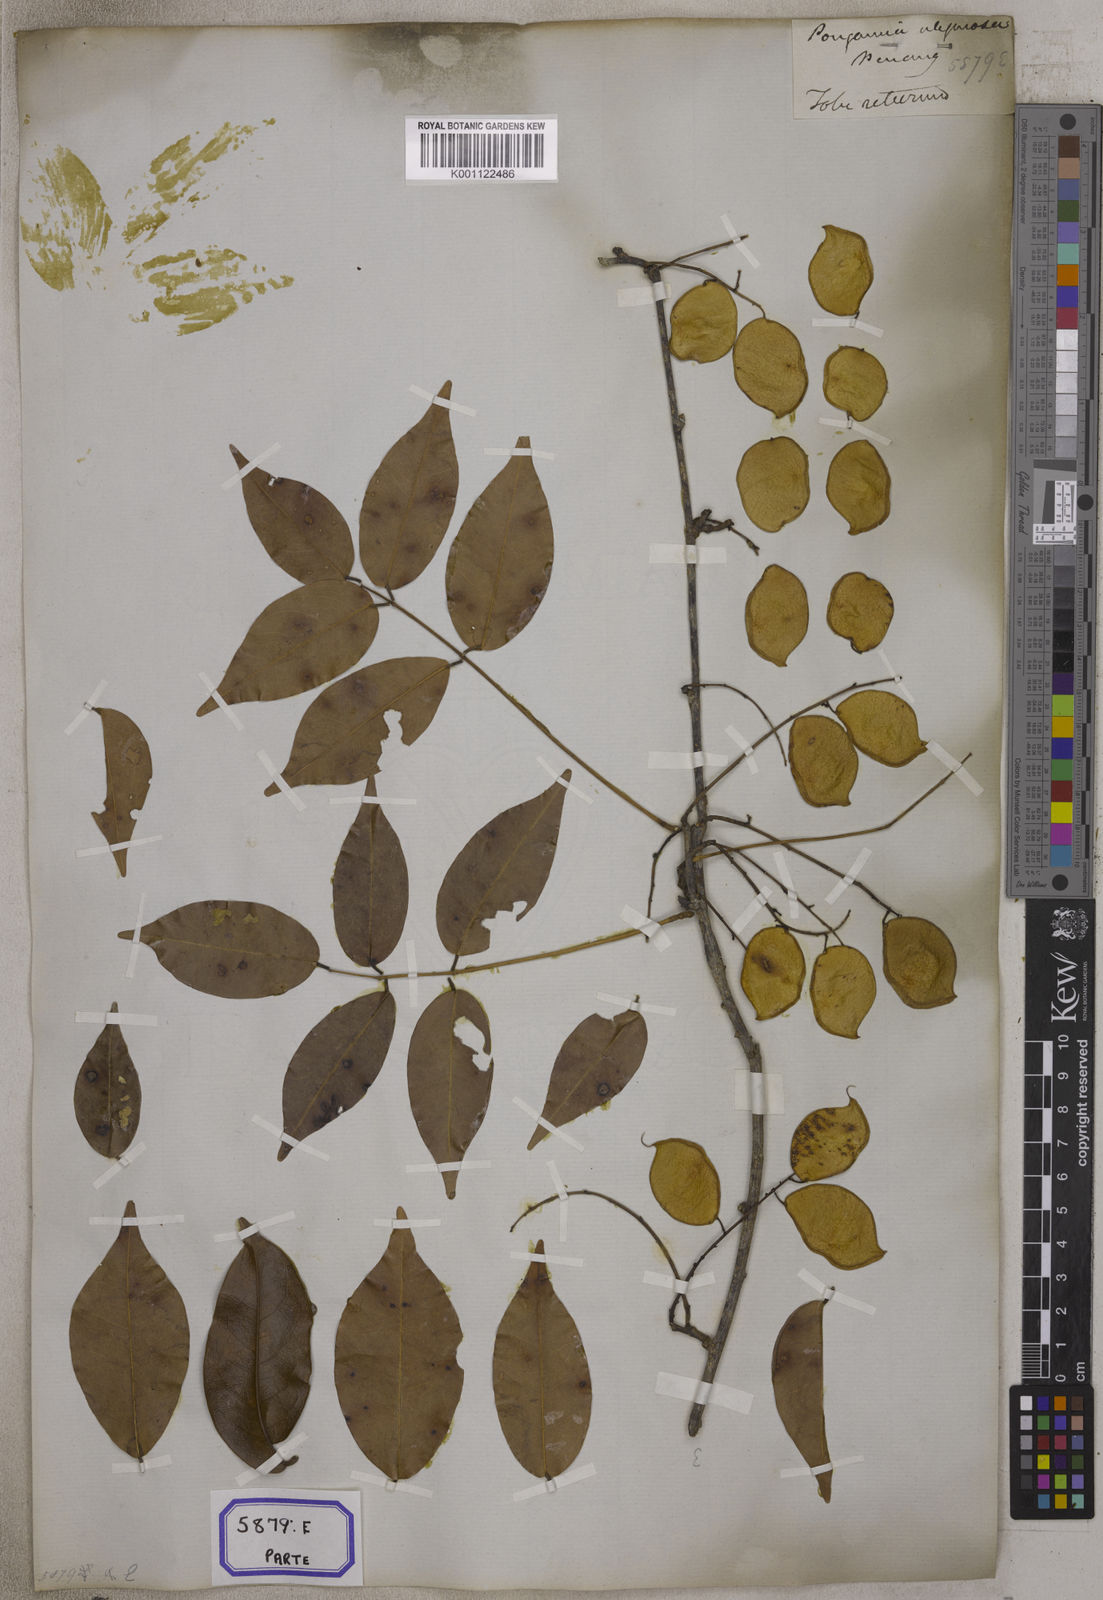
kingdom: Plantae
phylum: Tracheophyta
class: Magnoliopsida
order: Fabales
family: Fabaceae
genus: Derris
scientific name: Derris trifoliata
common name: Three-leaf derris
